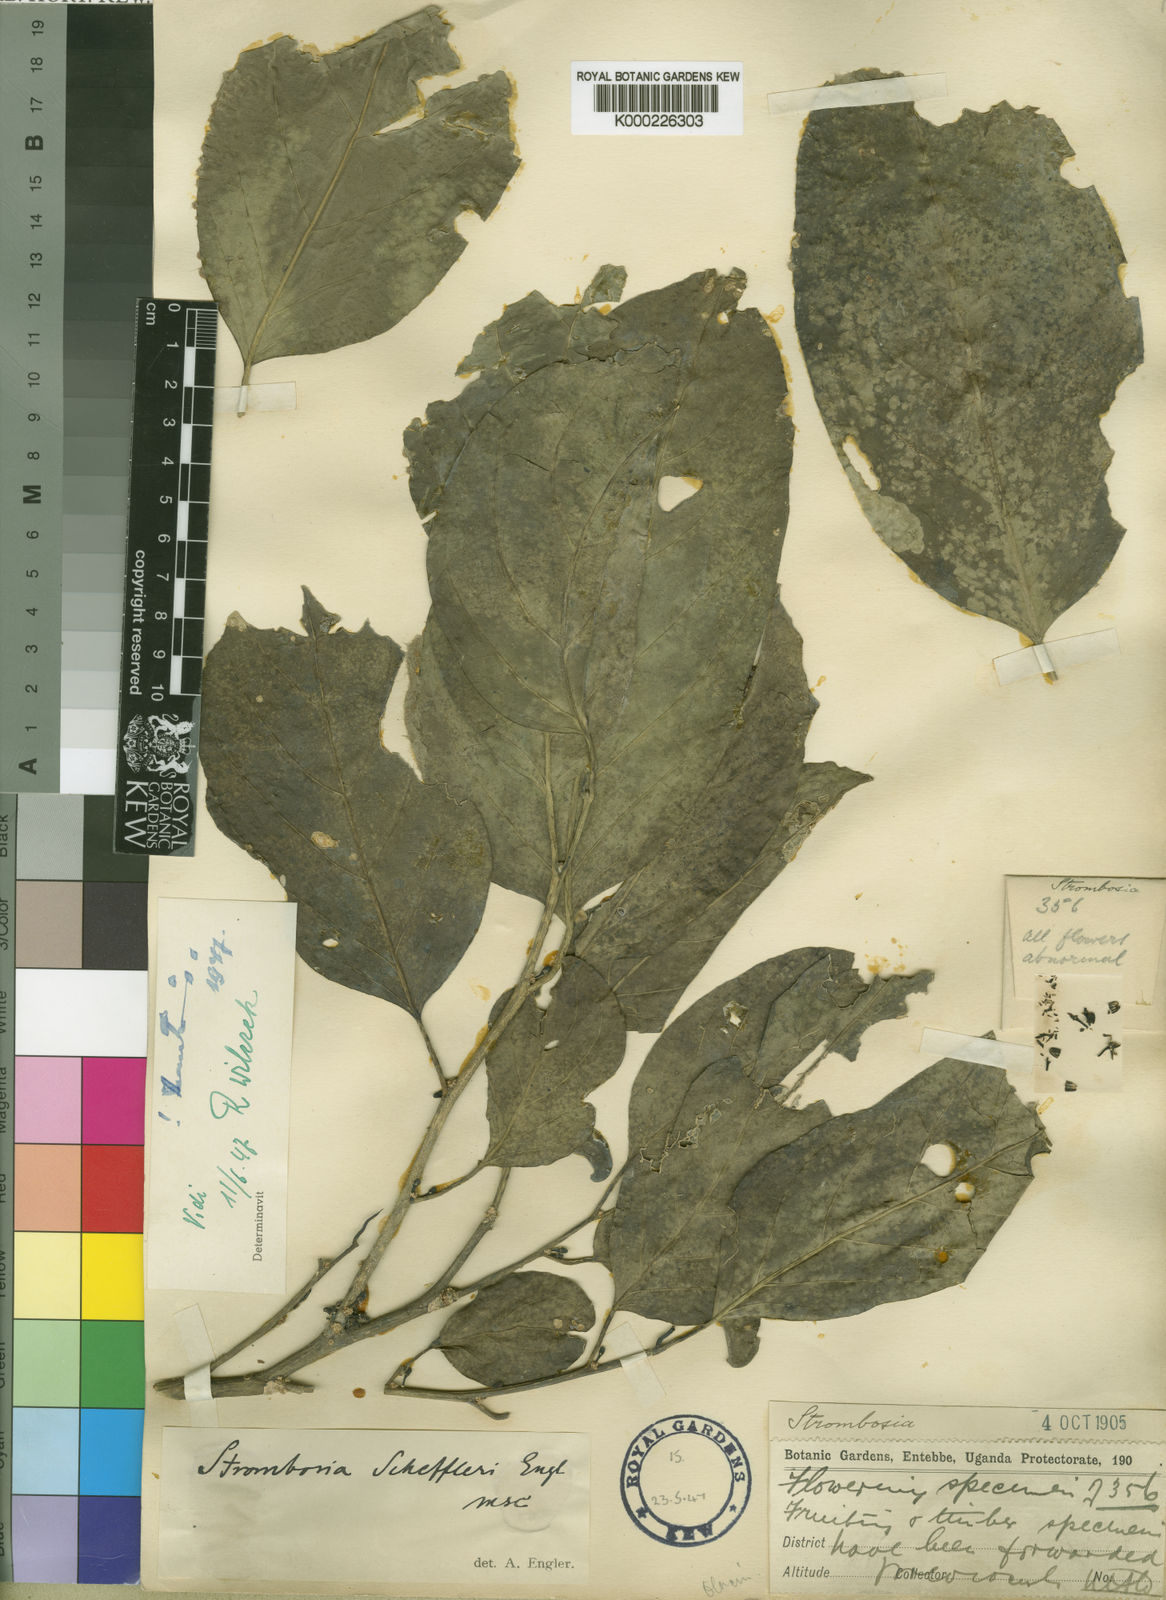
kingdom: Plantae
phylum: Tracheophyta
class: Magnoliopsida
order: Santalales
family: Strombosiaceae
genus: Strombosia
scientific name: Strombosia scheffleri
